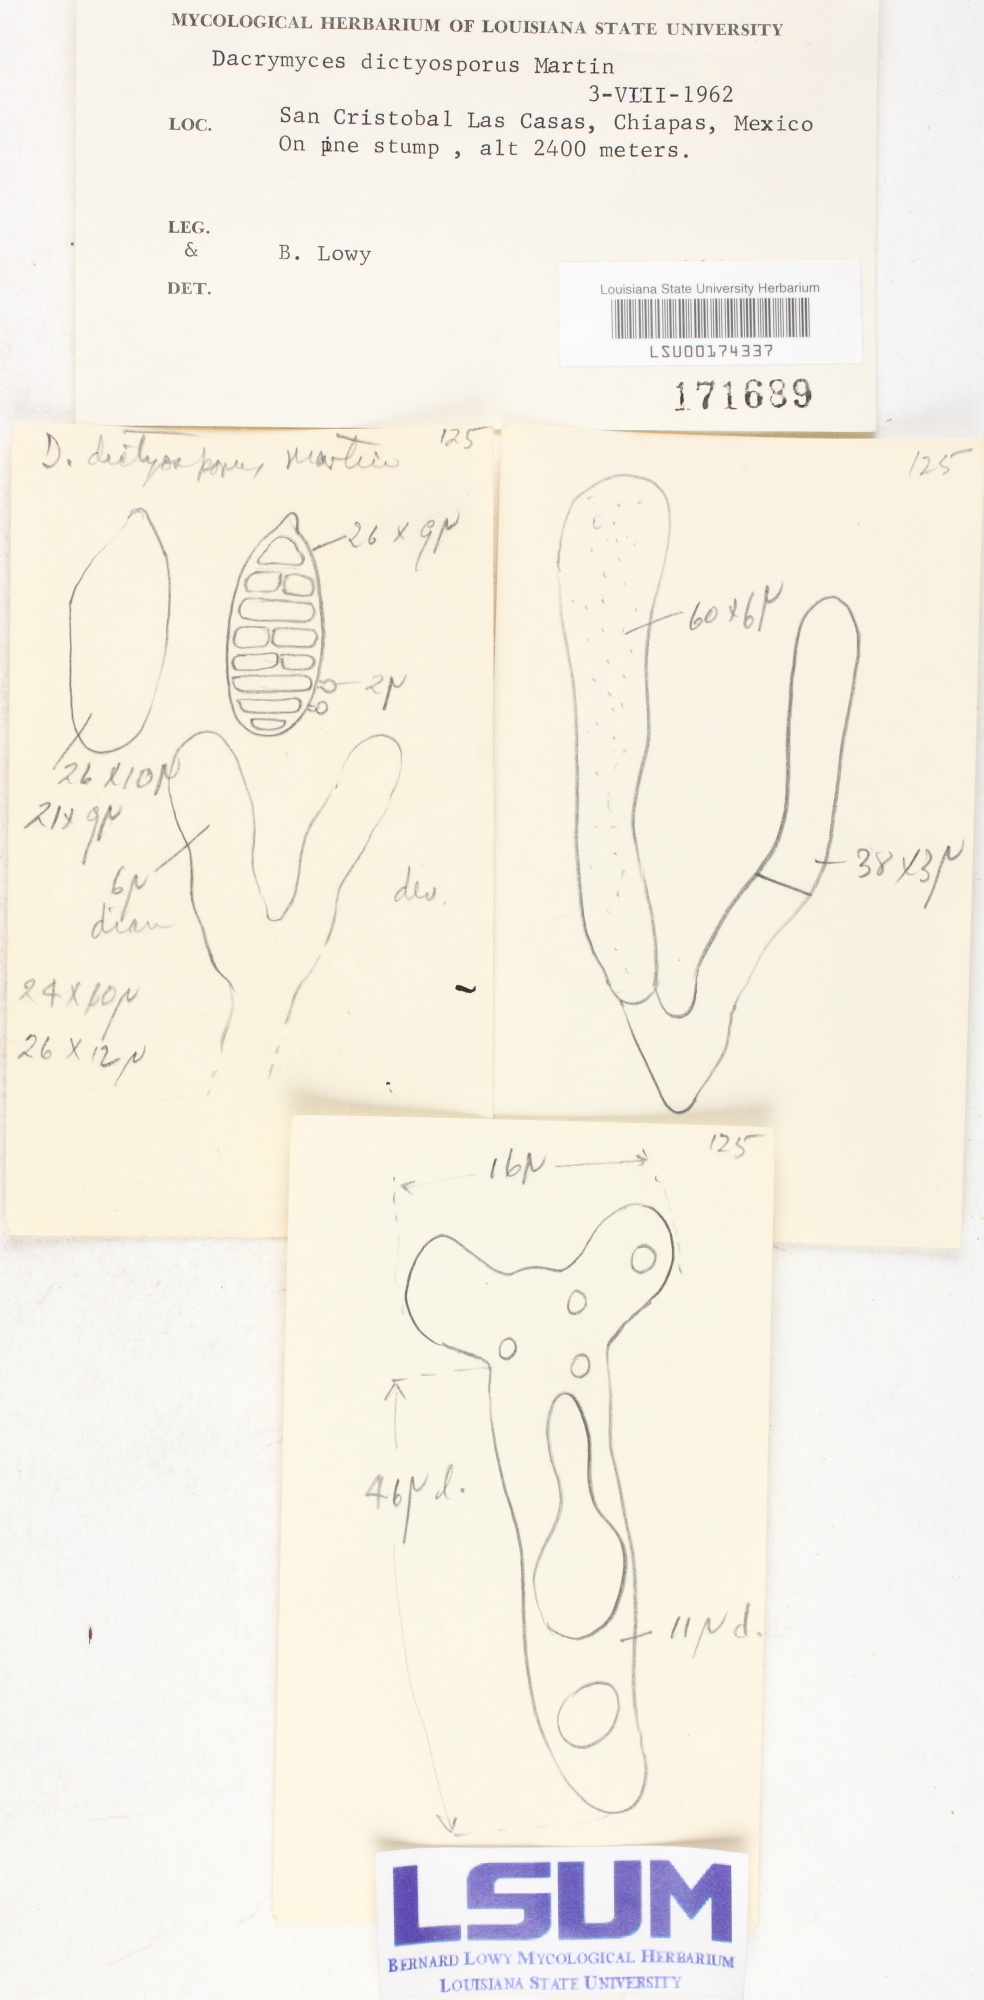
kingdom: Fungi
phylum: Basidiomycota
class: Dacrymycetes
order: Dacrymycetales
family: Dacrymycetaceae
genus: Dacrymyces
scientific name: Dacrymyces dictyosporus
